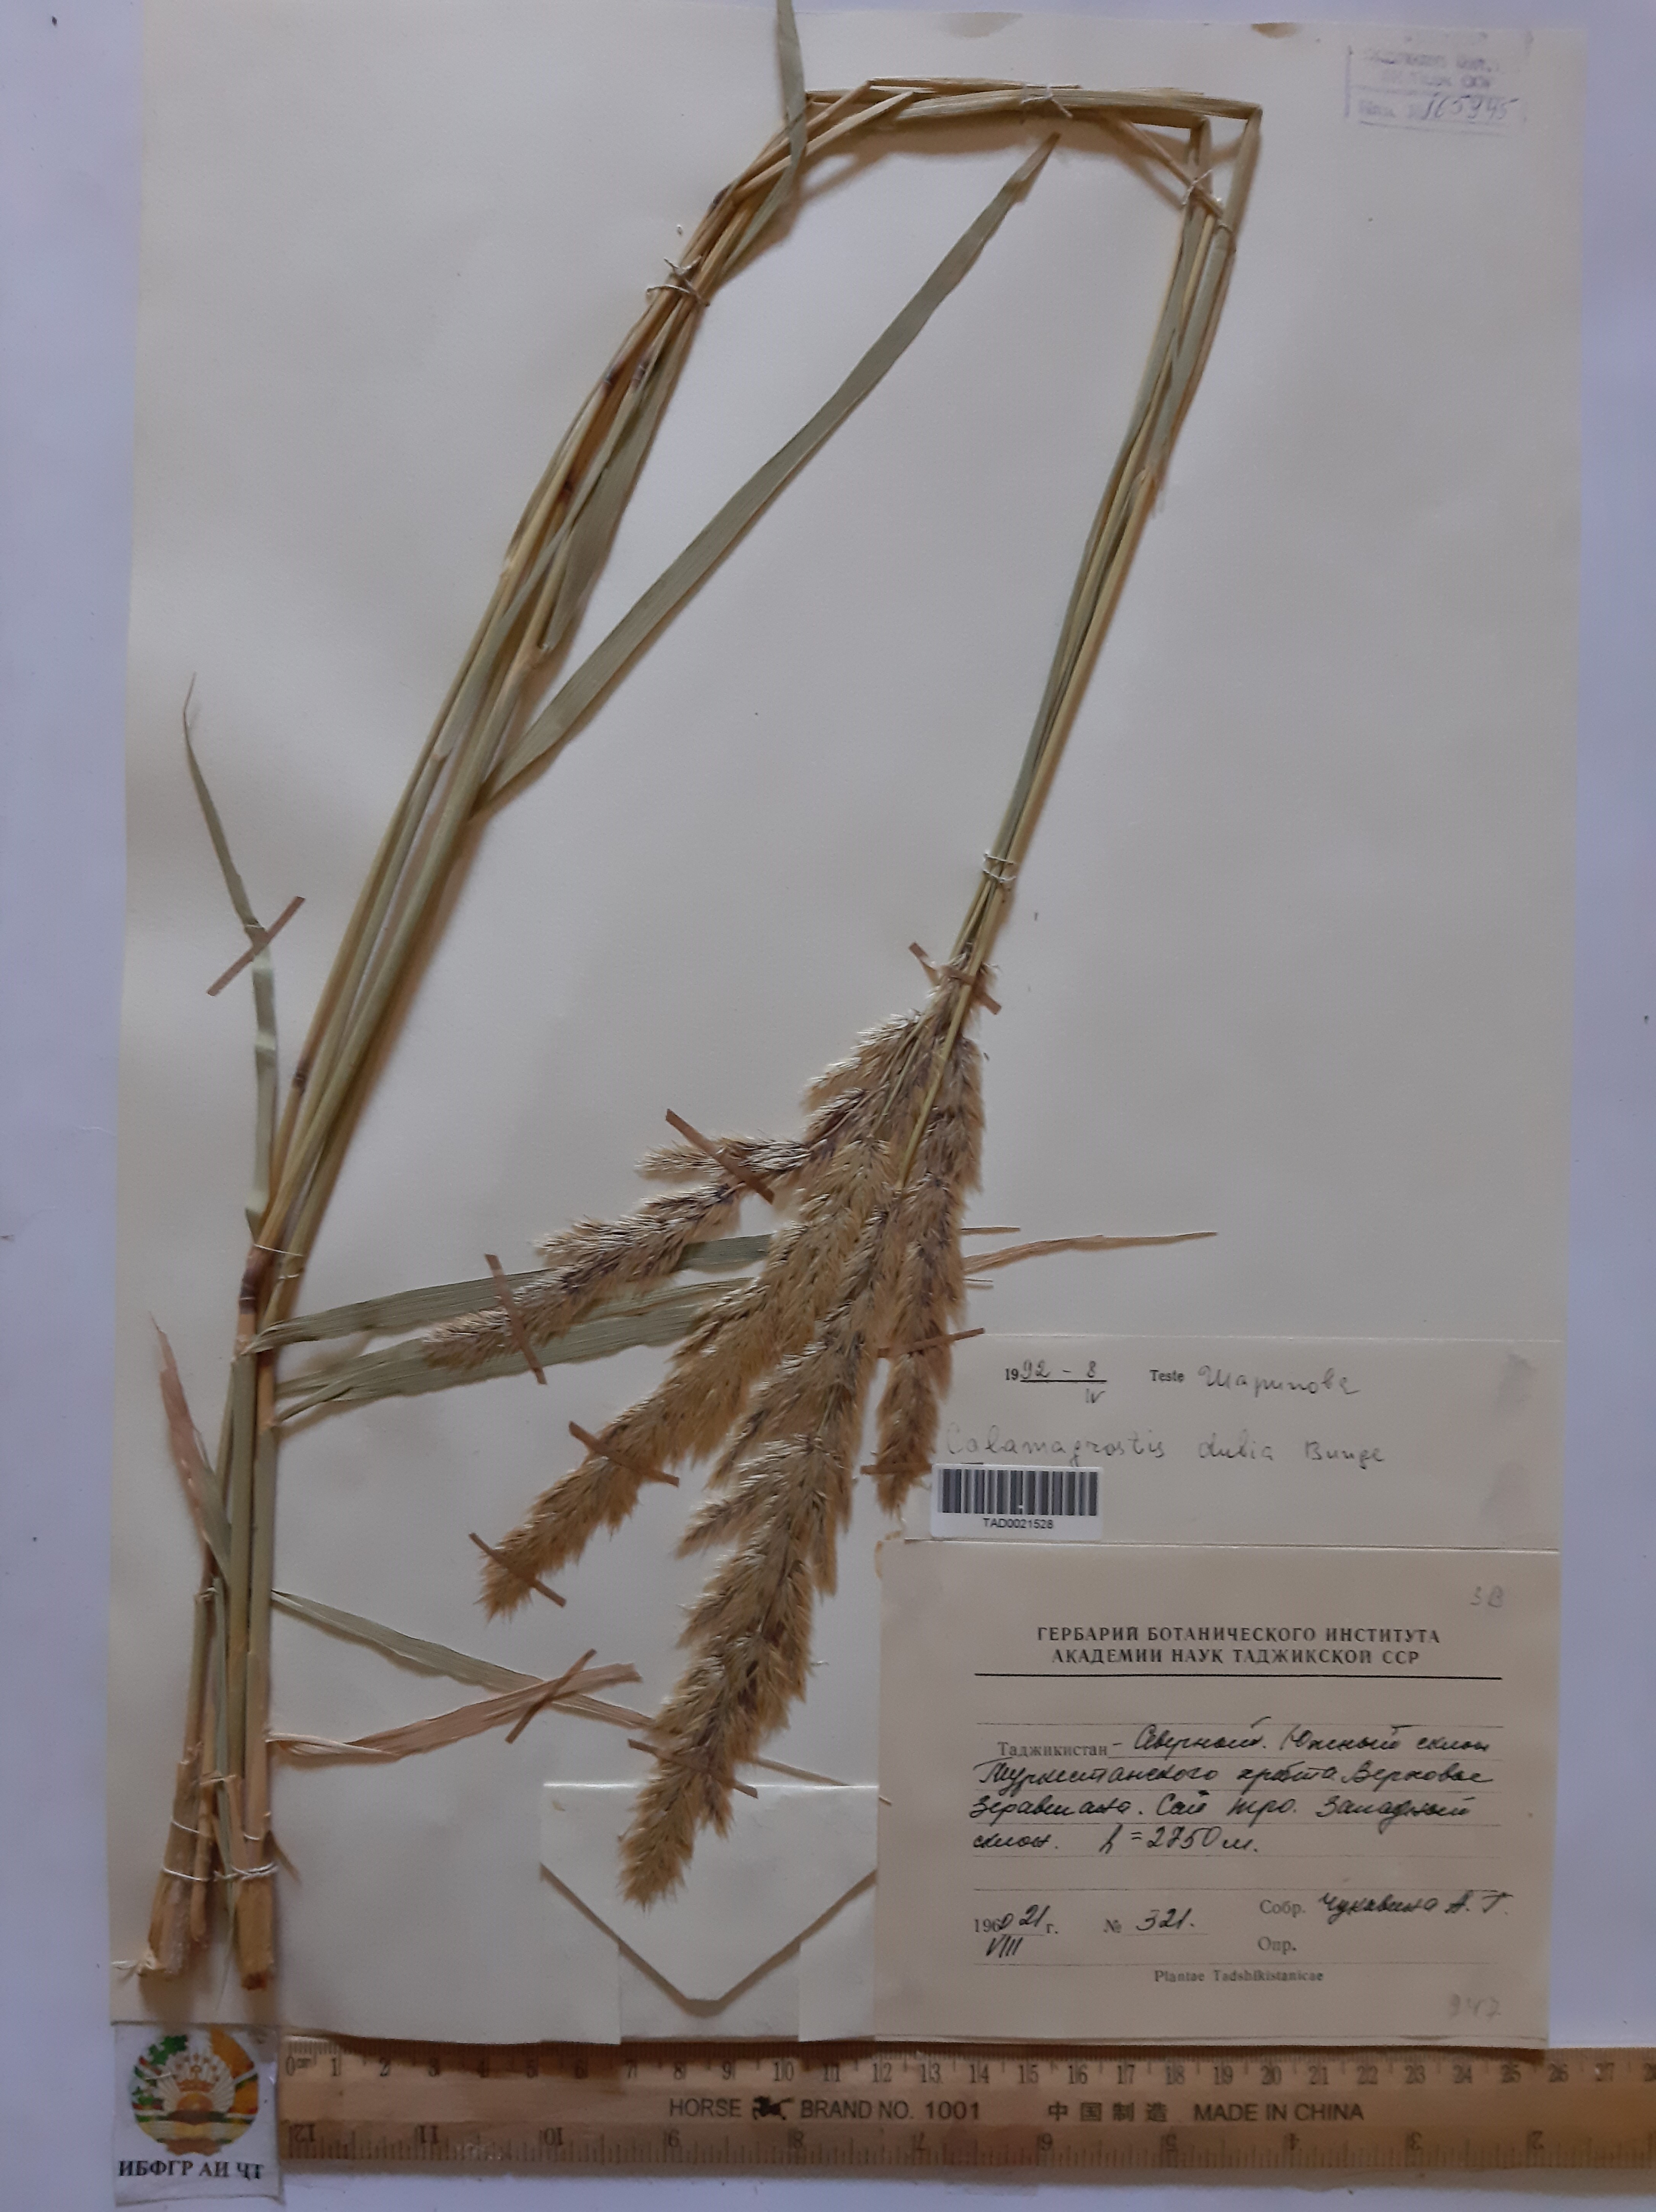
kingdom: Plantae
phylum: Tracheophyta
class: Liliopsida
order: Poales
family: Poaceae
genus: Calamagrostis
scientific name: Calamagrostis pseudophragmites
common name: Coastal small-reed
